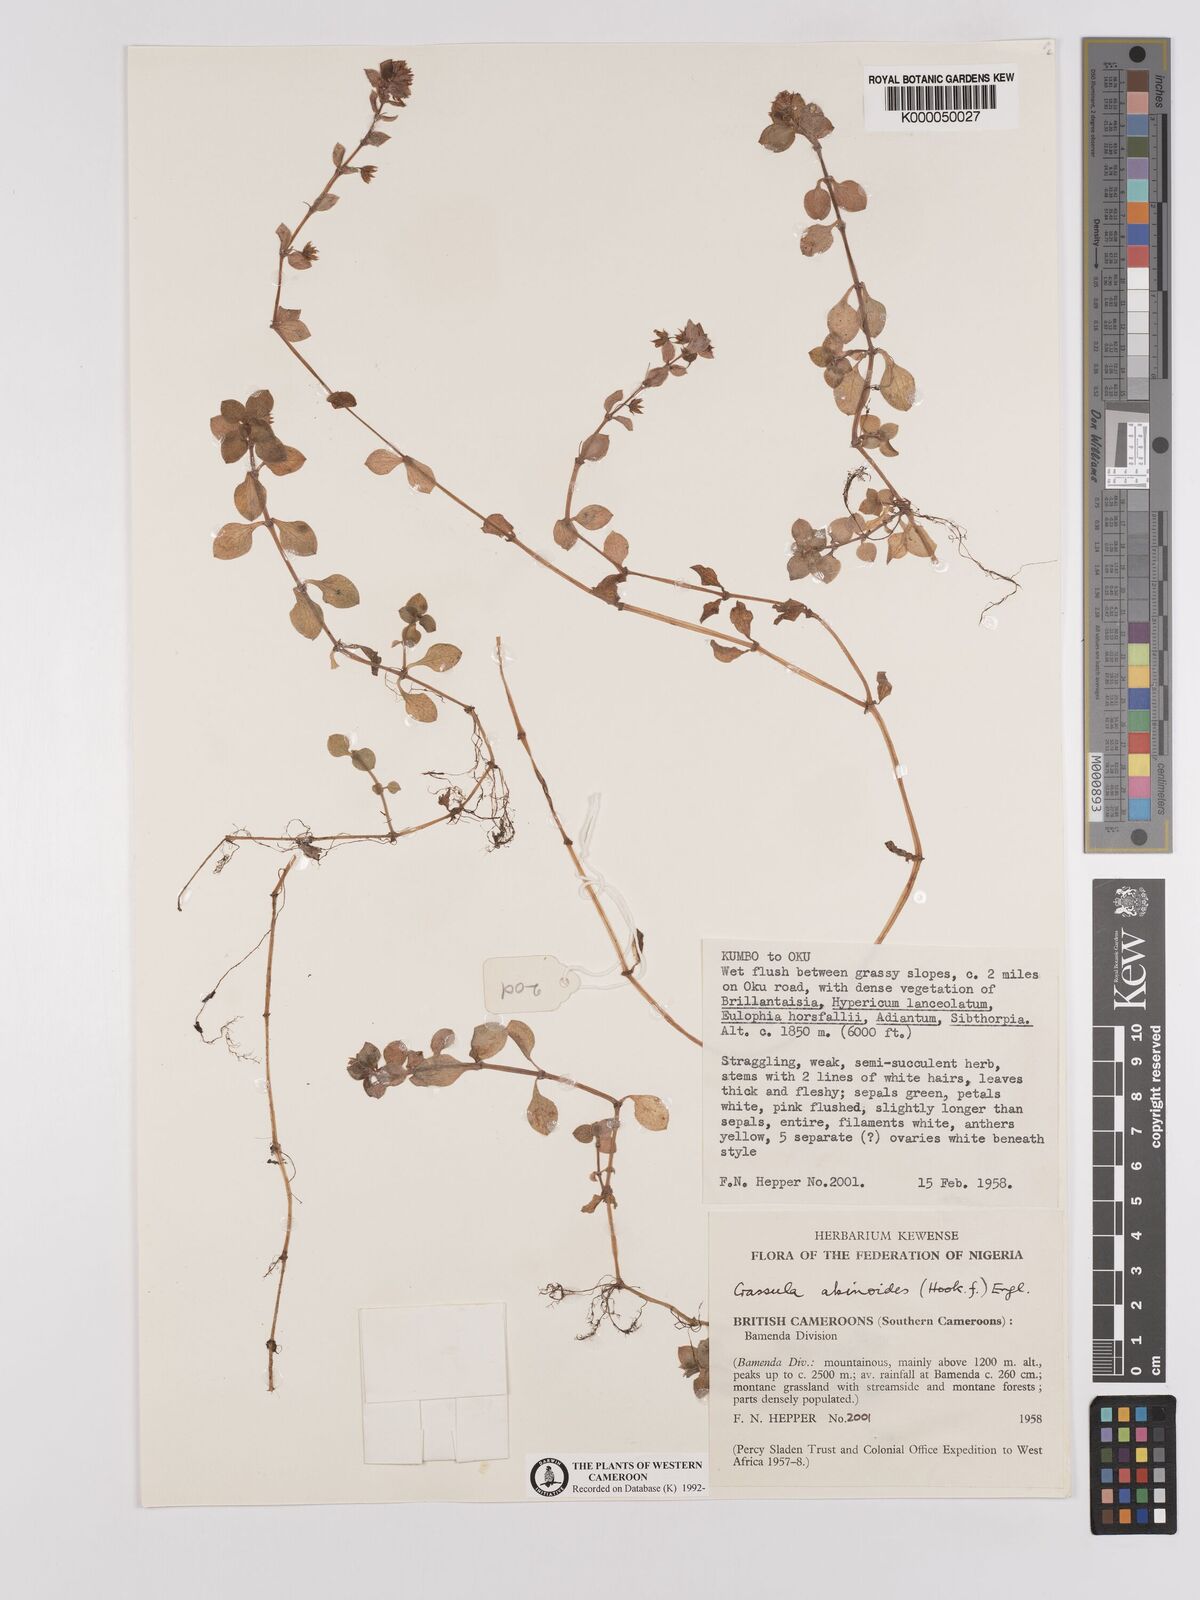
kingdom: Plantae
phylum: Tracheophyta
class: Magnoliopsida
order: Saxifragales
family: Crassulaceae
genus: Crassula
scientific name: Crassula alsinoides
